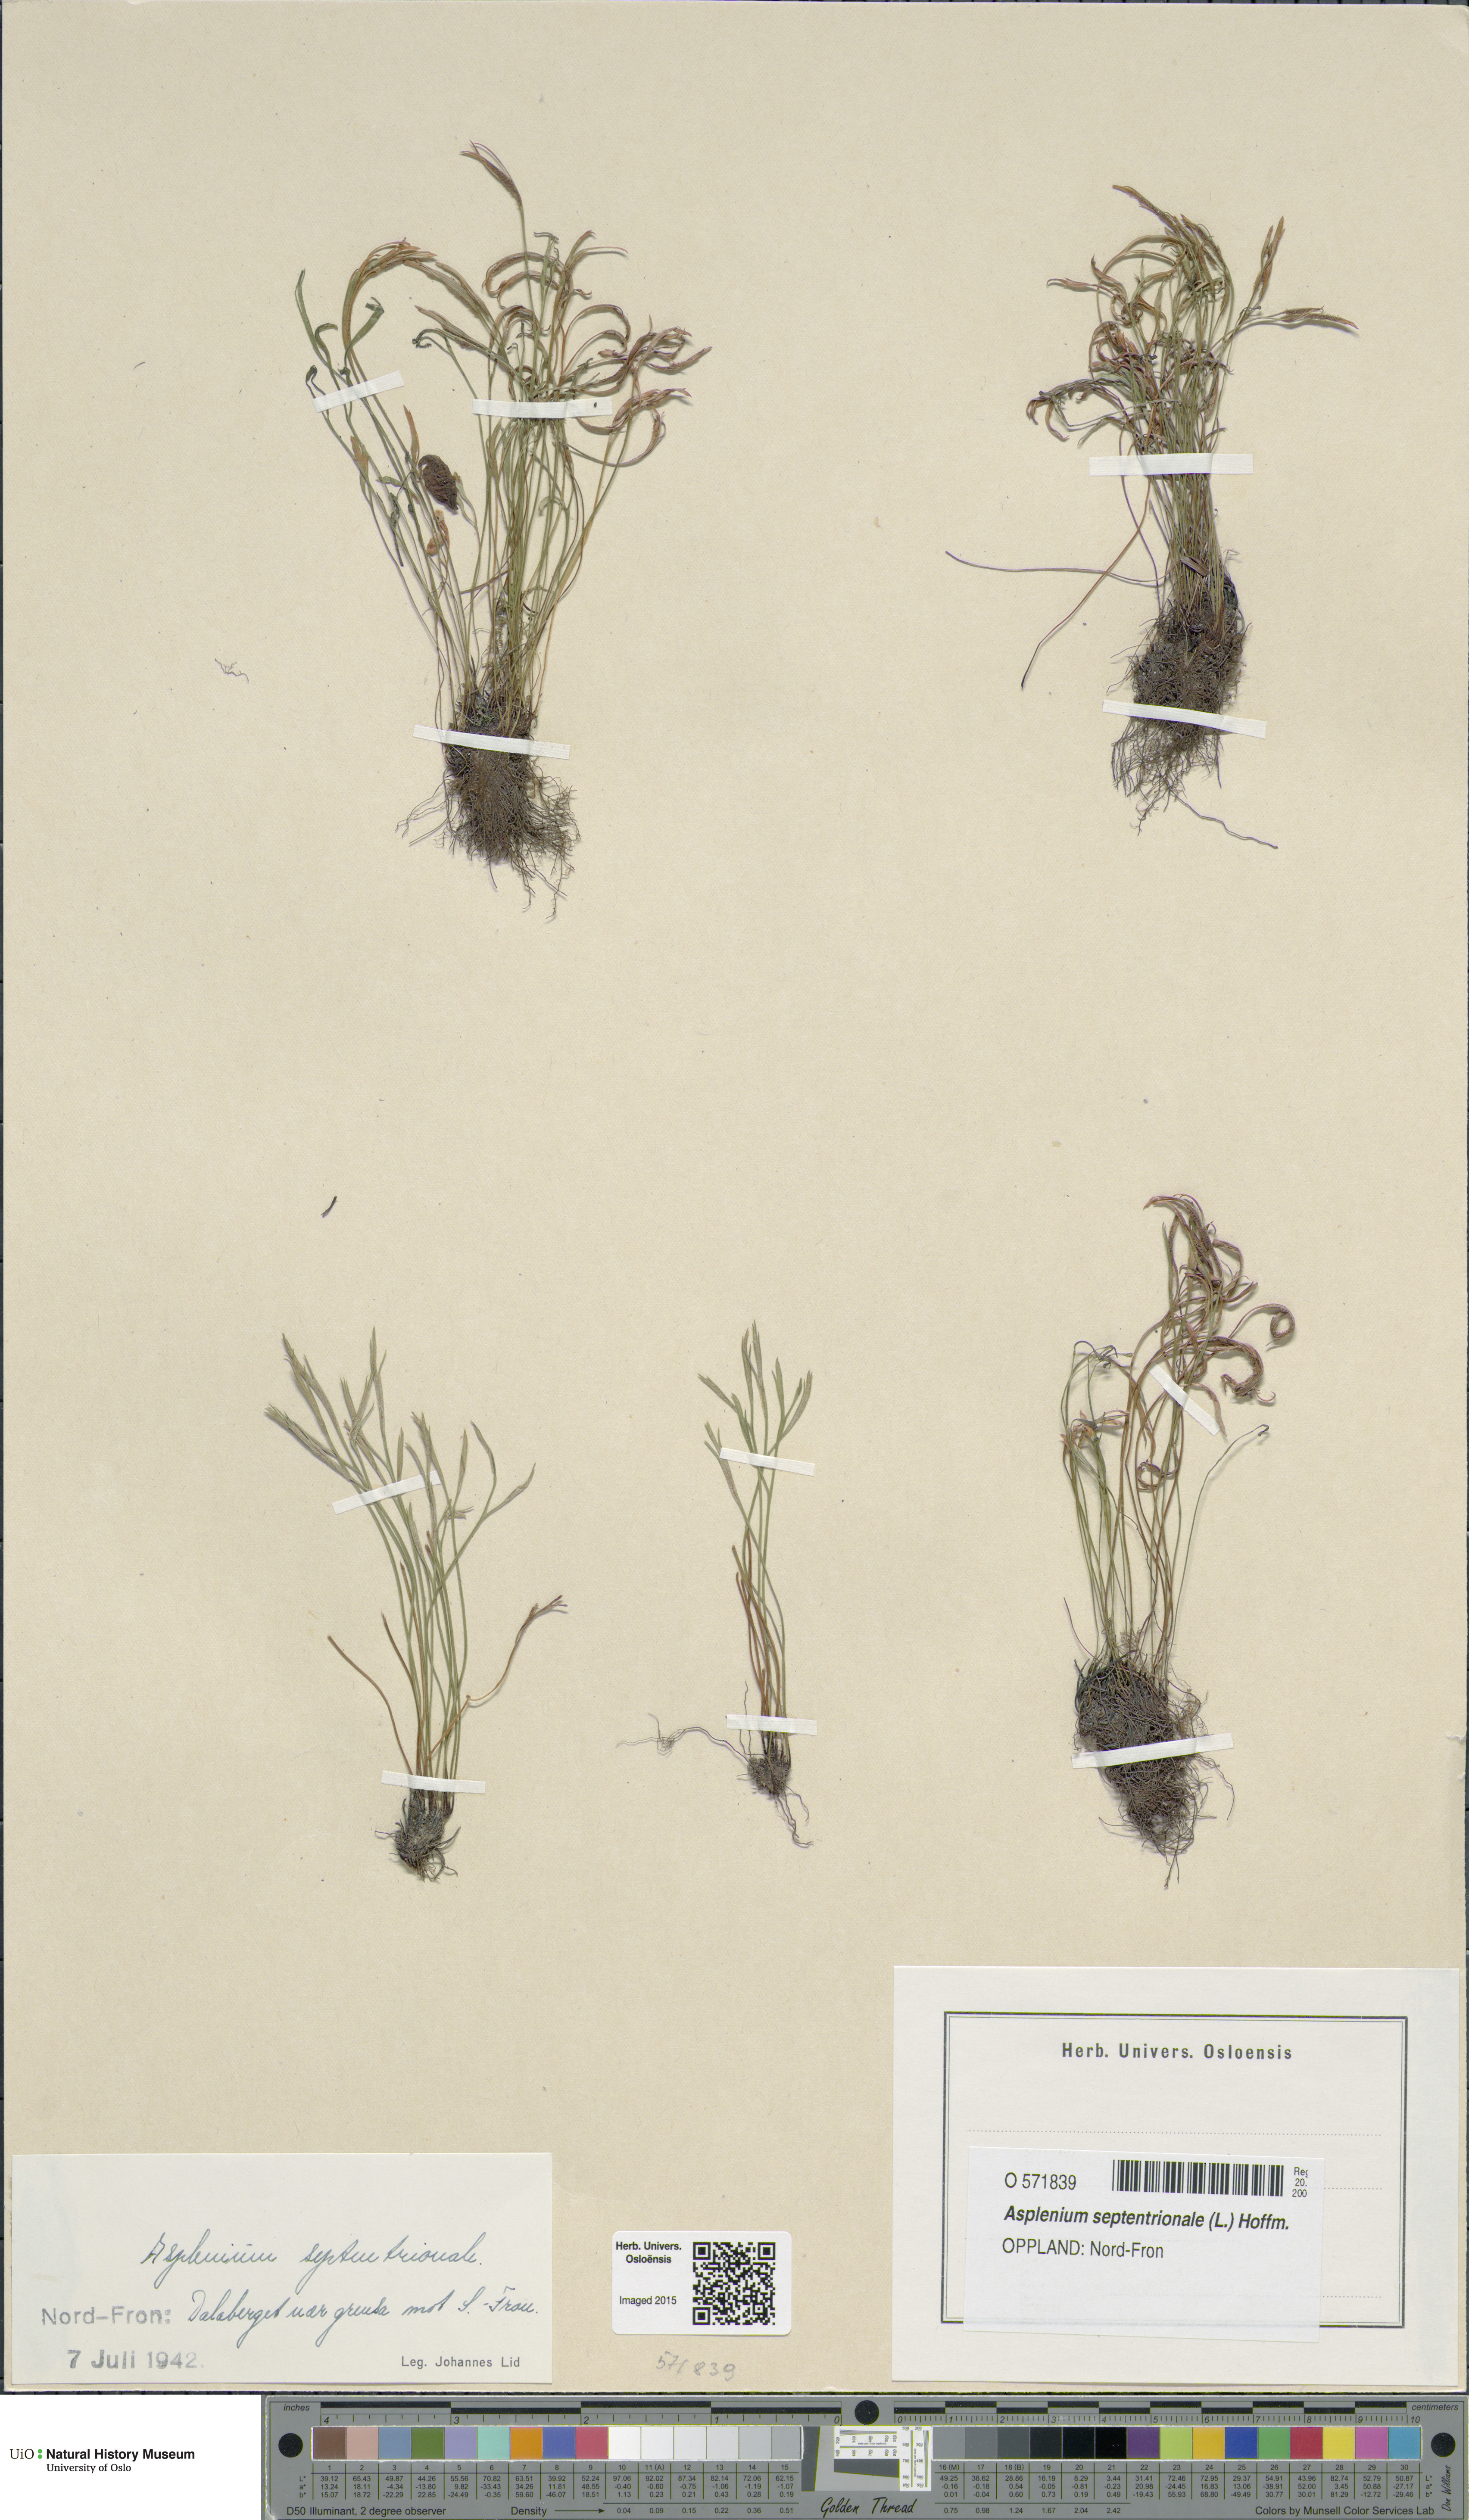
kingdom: Plantae
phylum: Tracheophyta
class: Polypodiopsida
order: Polypodiales
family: Aspleniaceae
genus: Asplenium
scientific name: Asplenium septentrionale
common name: Forked spleenwort
